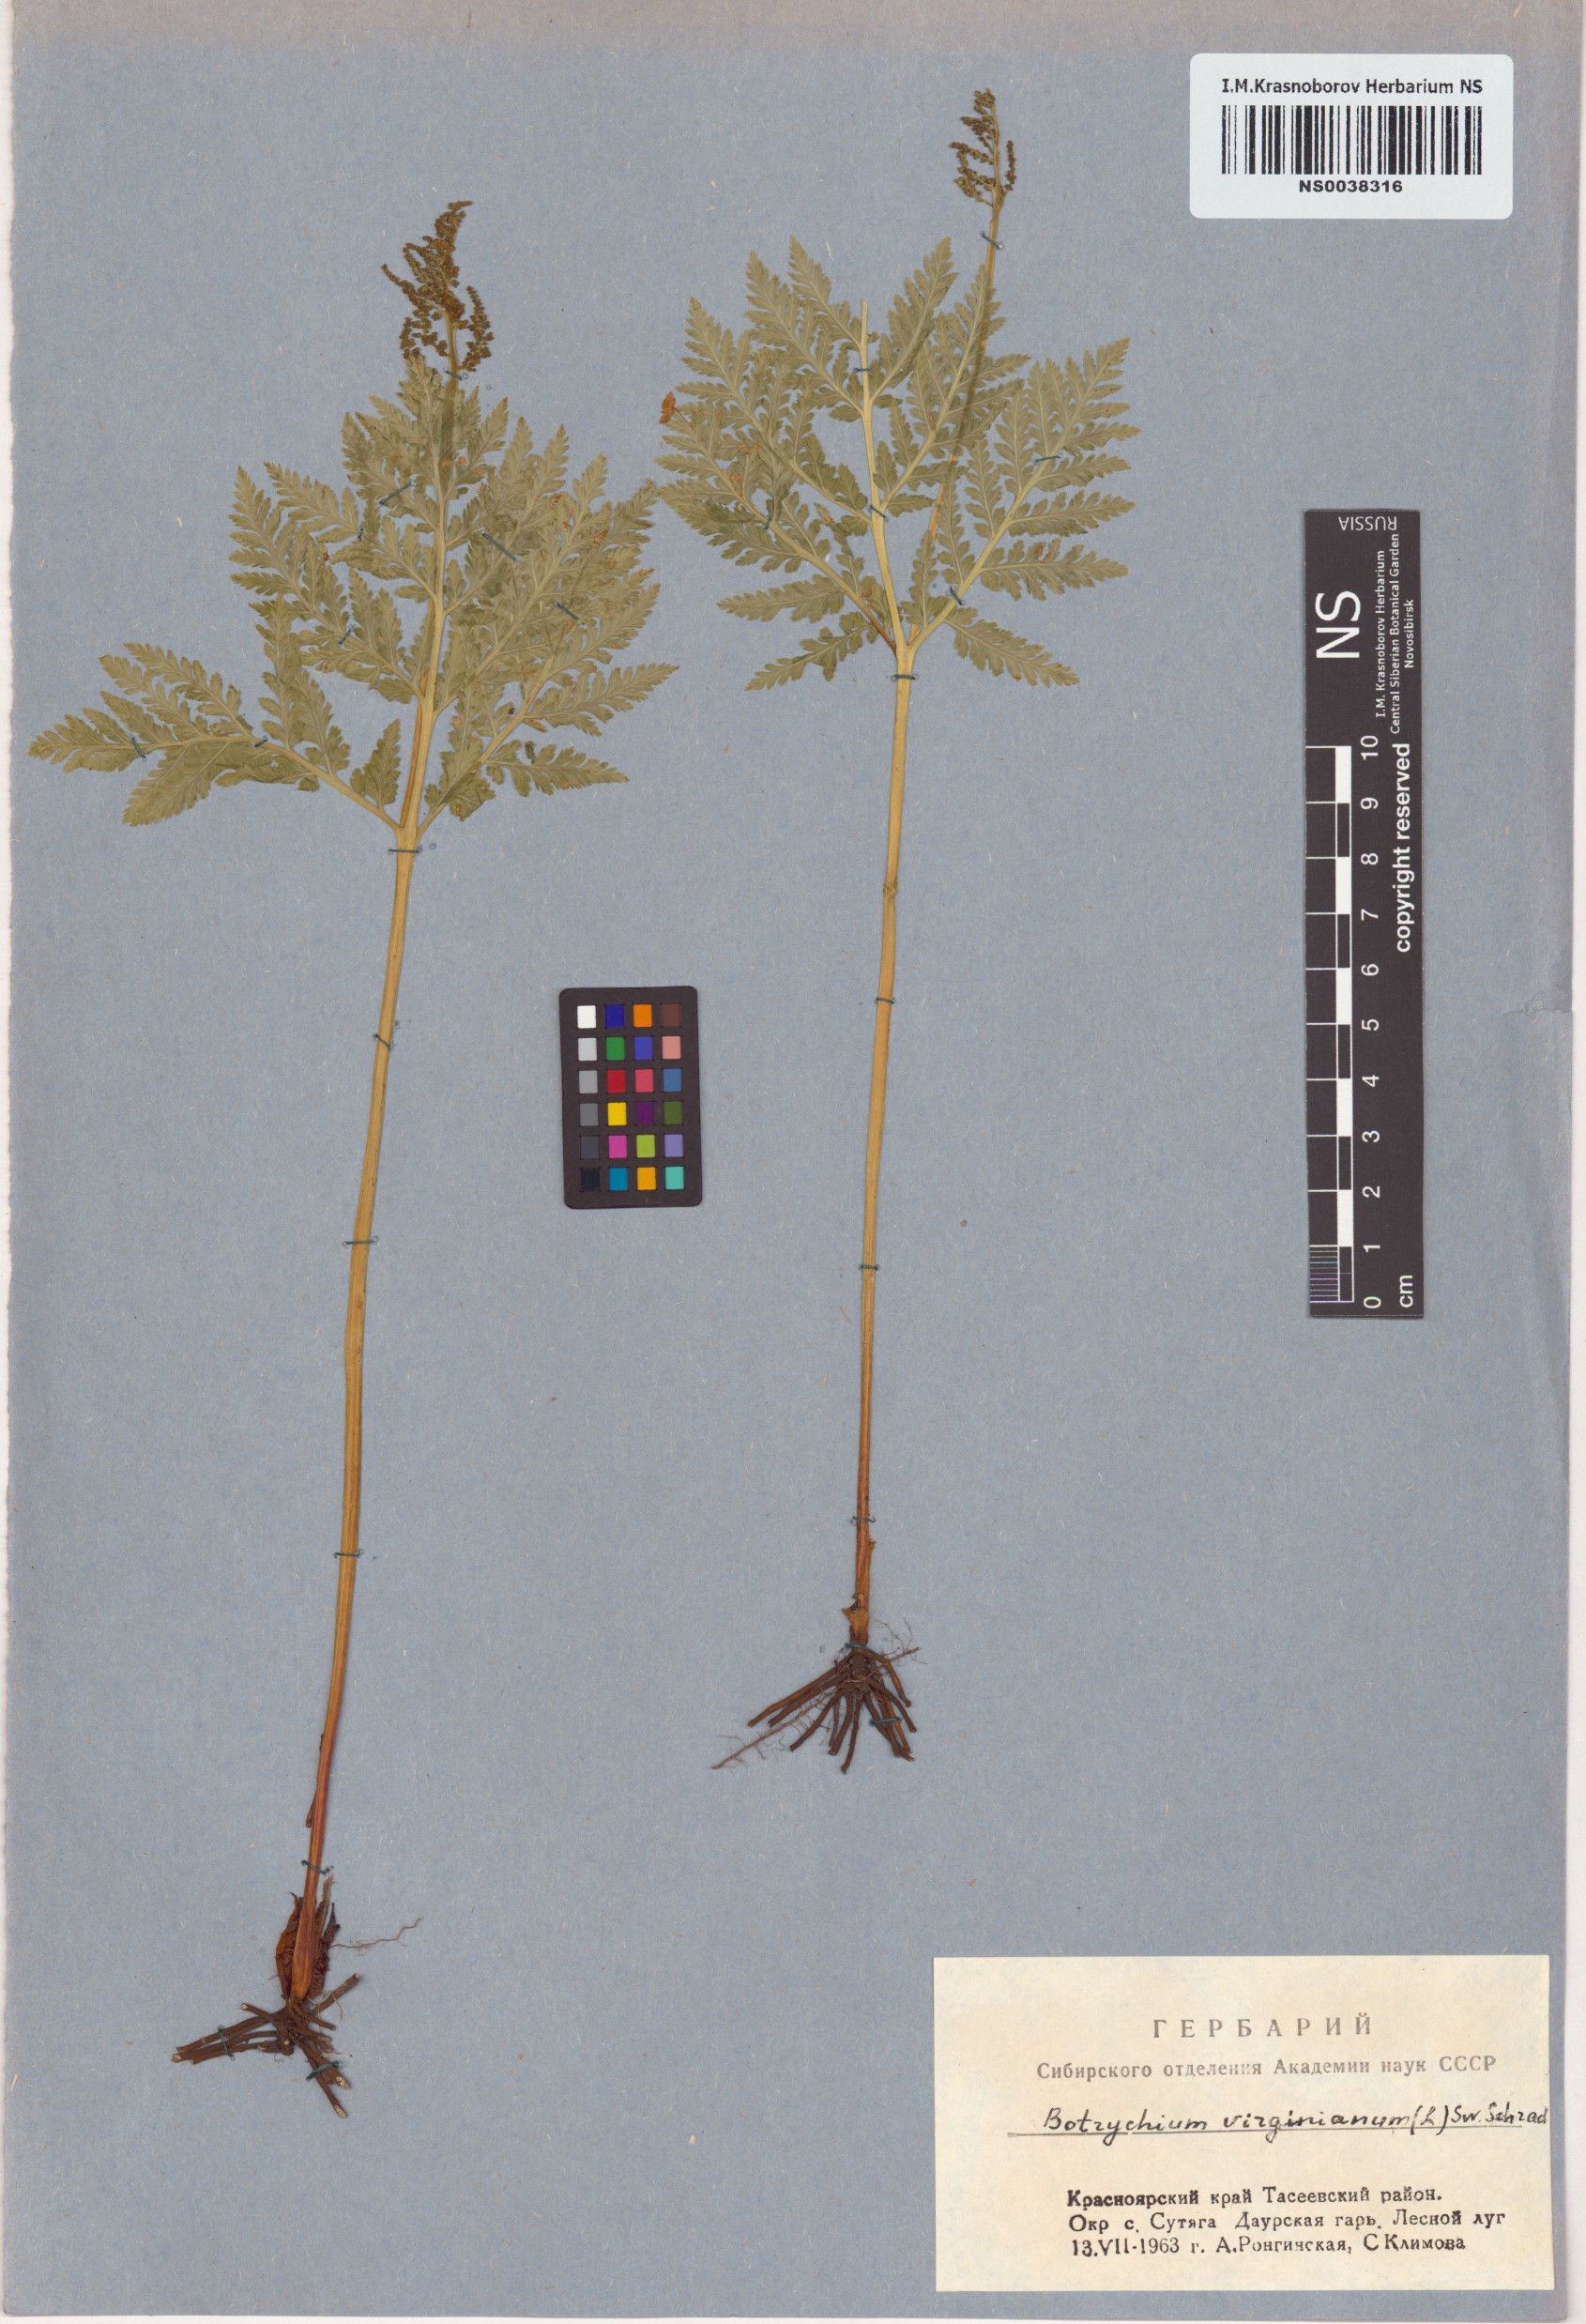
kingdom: Plantae
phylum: Tracheophyta
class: Polypodiopsida
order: Ophioglossales
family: Ophioglossaceae
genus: Botrypus
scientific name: Botrypus virginianus
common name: Common grapefern
